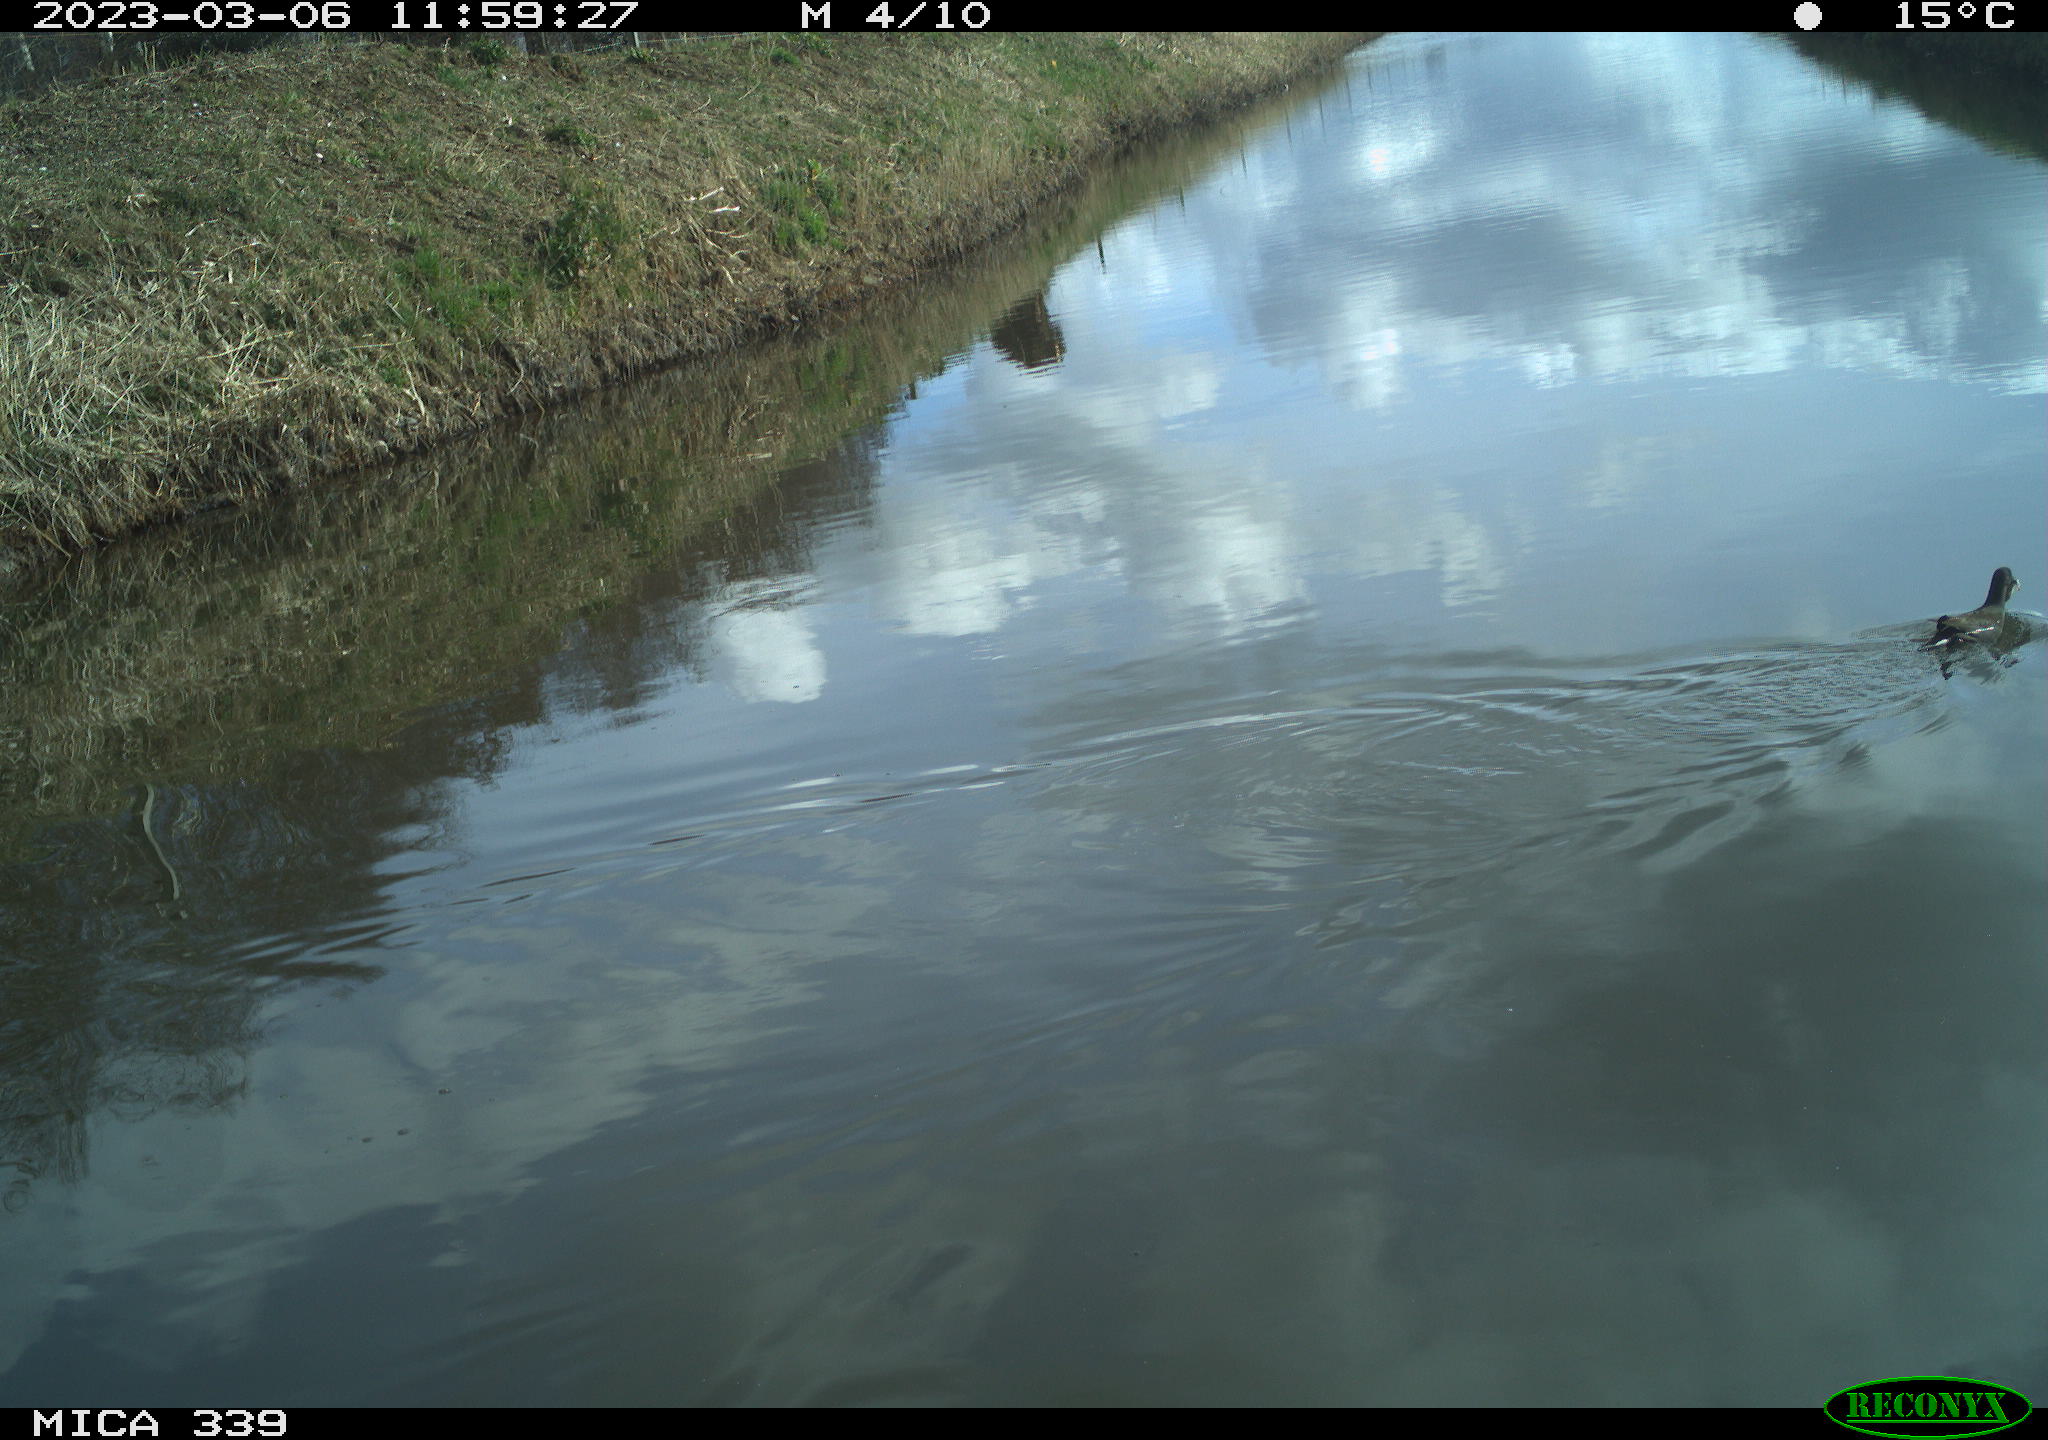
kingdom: Animalia
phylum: Chordata
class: Aves
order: Gruiformes
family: Rallidae
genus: Gallinula
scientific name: Gallinula chloropus
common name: Common moorhen
